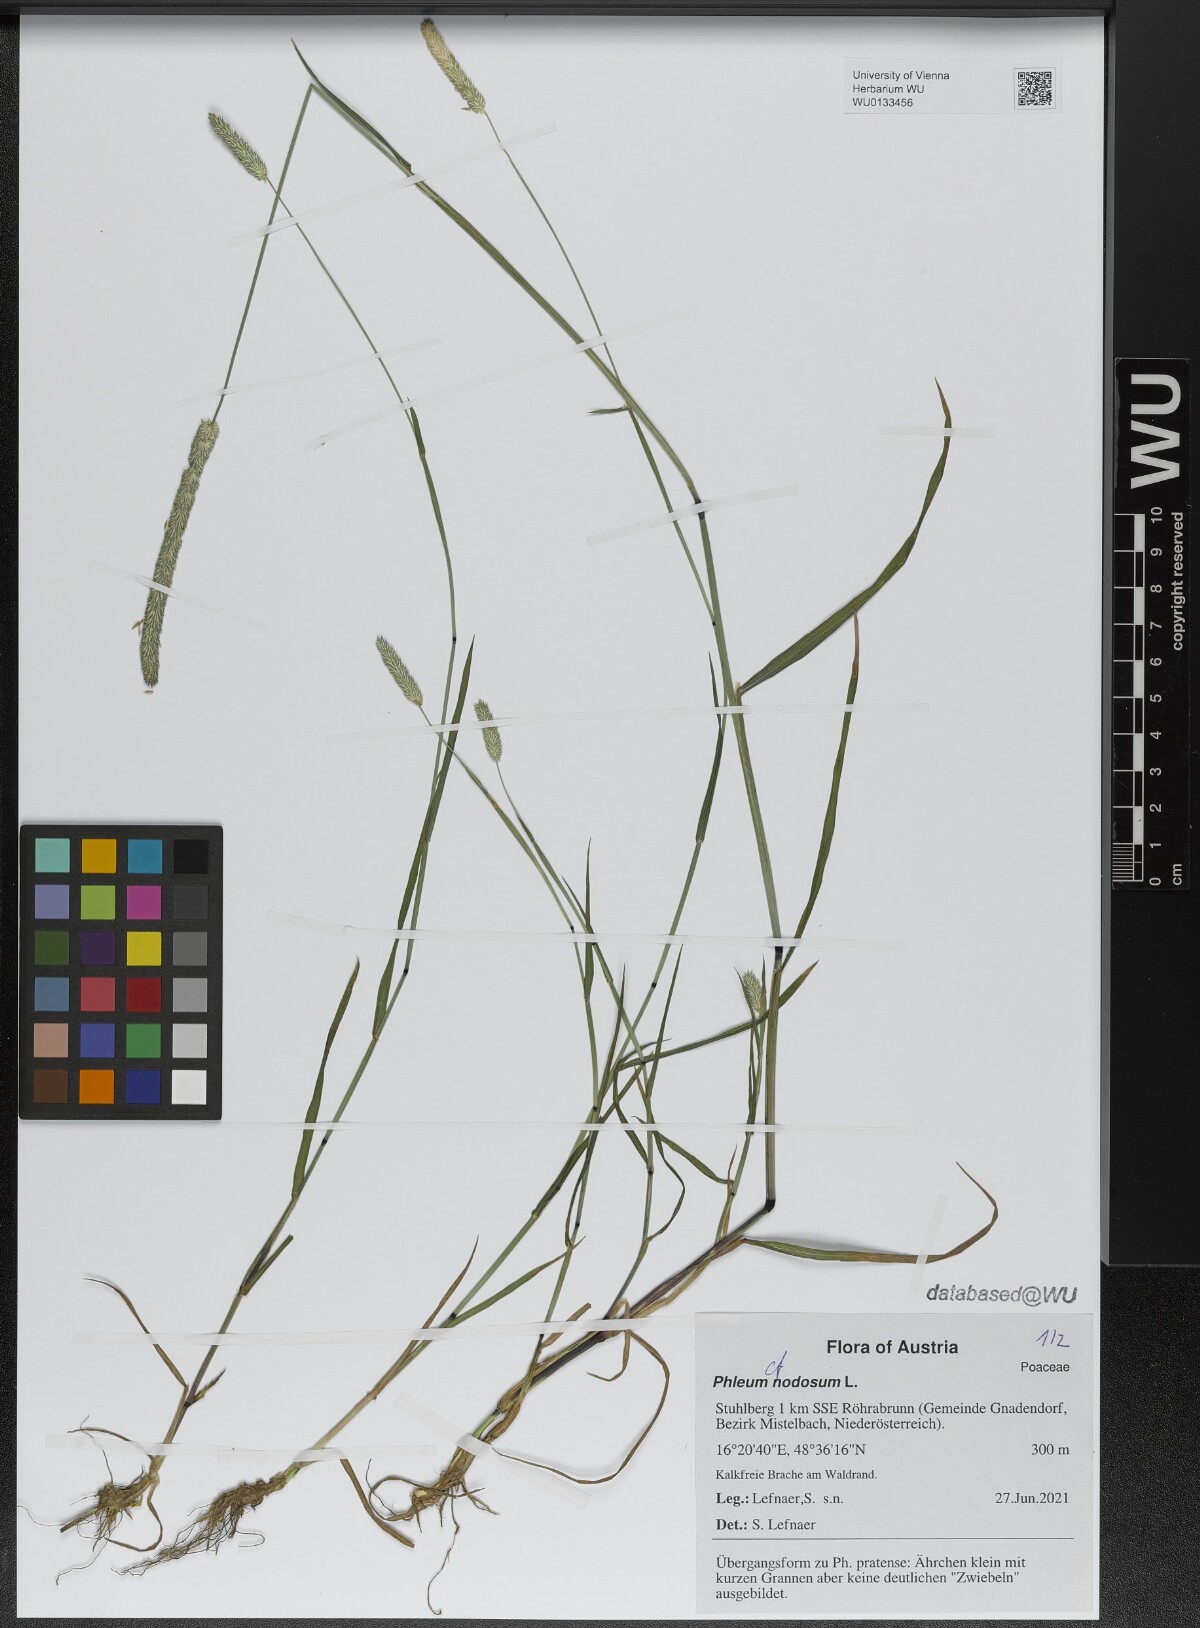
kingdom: Plantae
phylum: Tracheophyta
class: Liliopsida
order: Poales
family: Poaceae
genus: Phleum
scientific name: Phleum pratense
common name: Timothy grass
